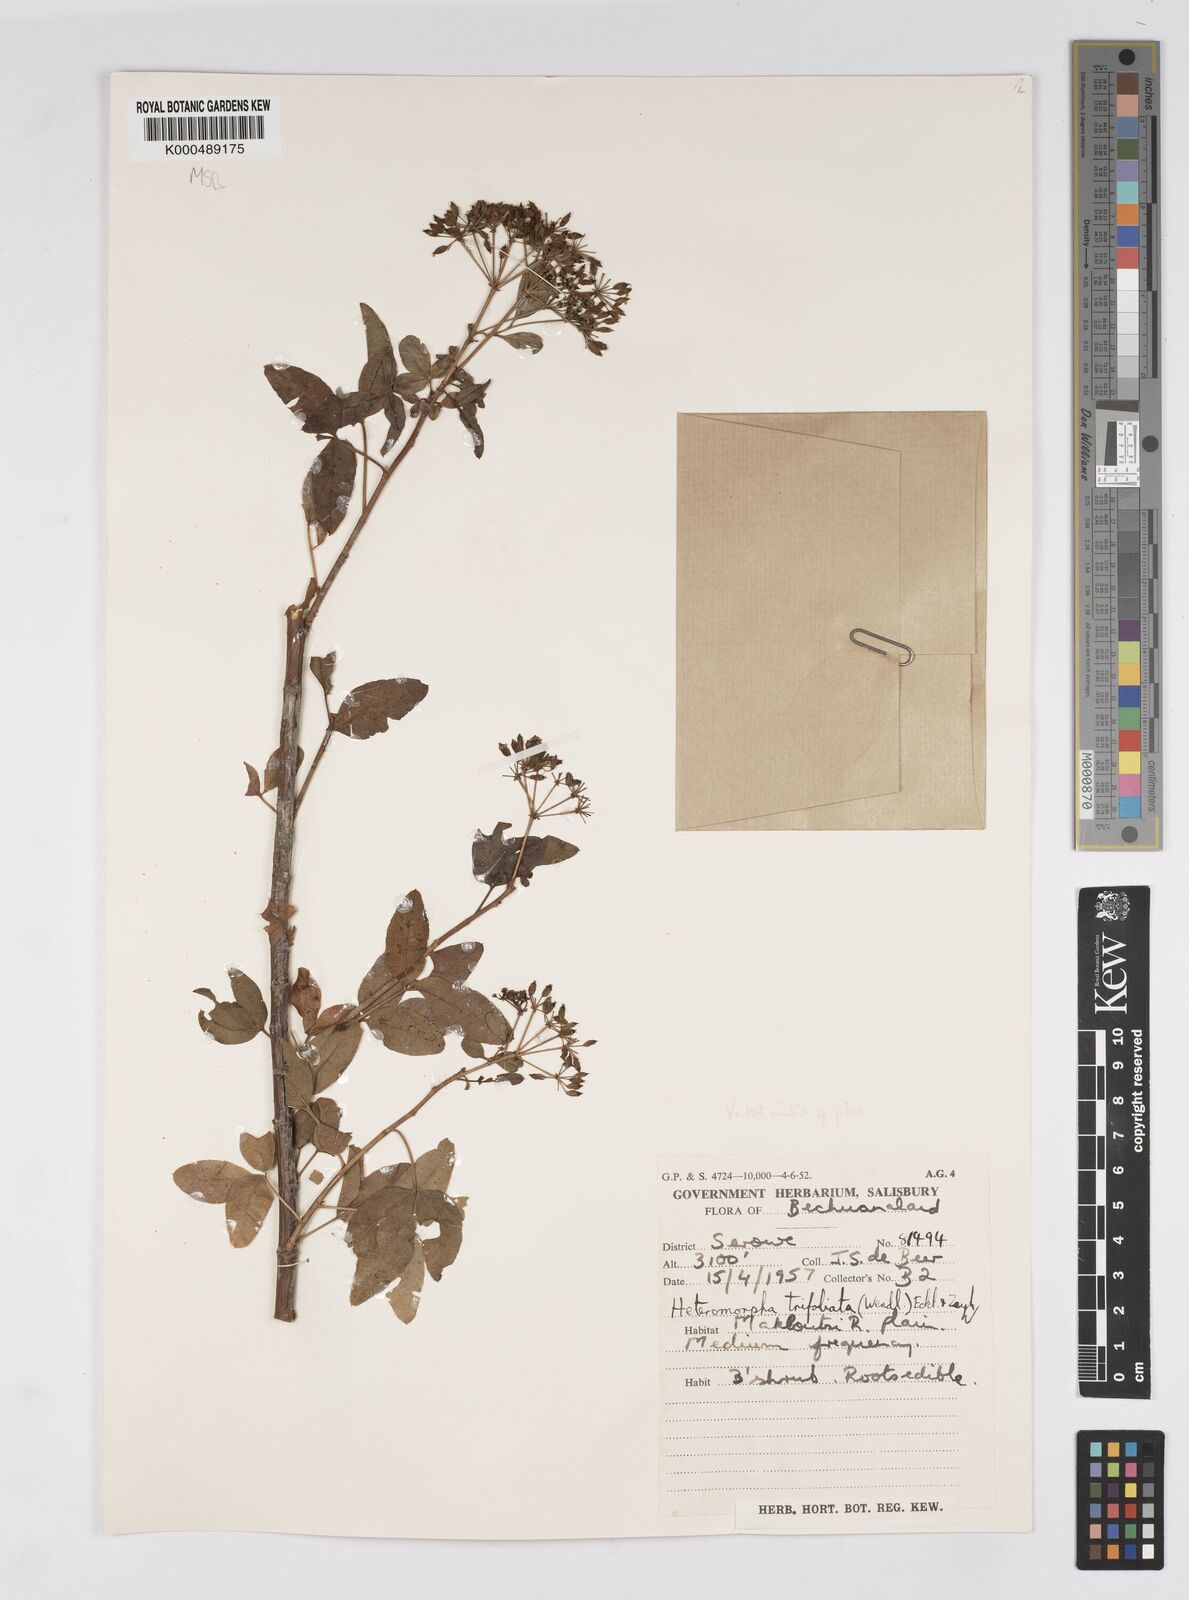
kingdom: Plantae
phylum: Tracheophyta
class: Magnoliopsida
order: Apiales
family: Apiaceae
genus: Heteromorpha
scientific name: Heteromorpha arborescens
